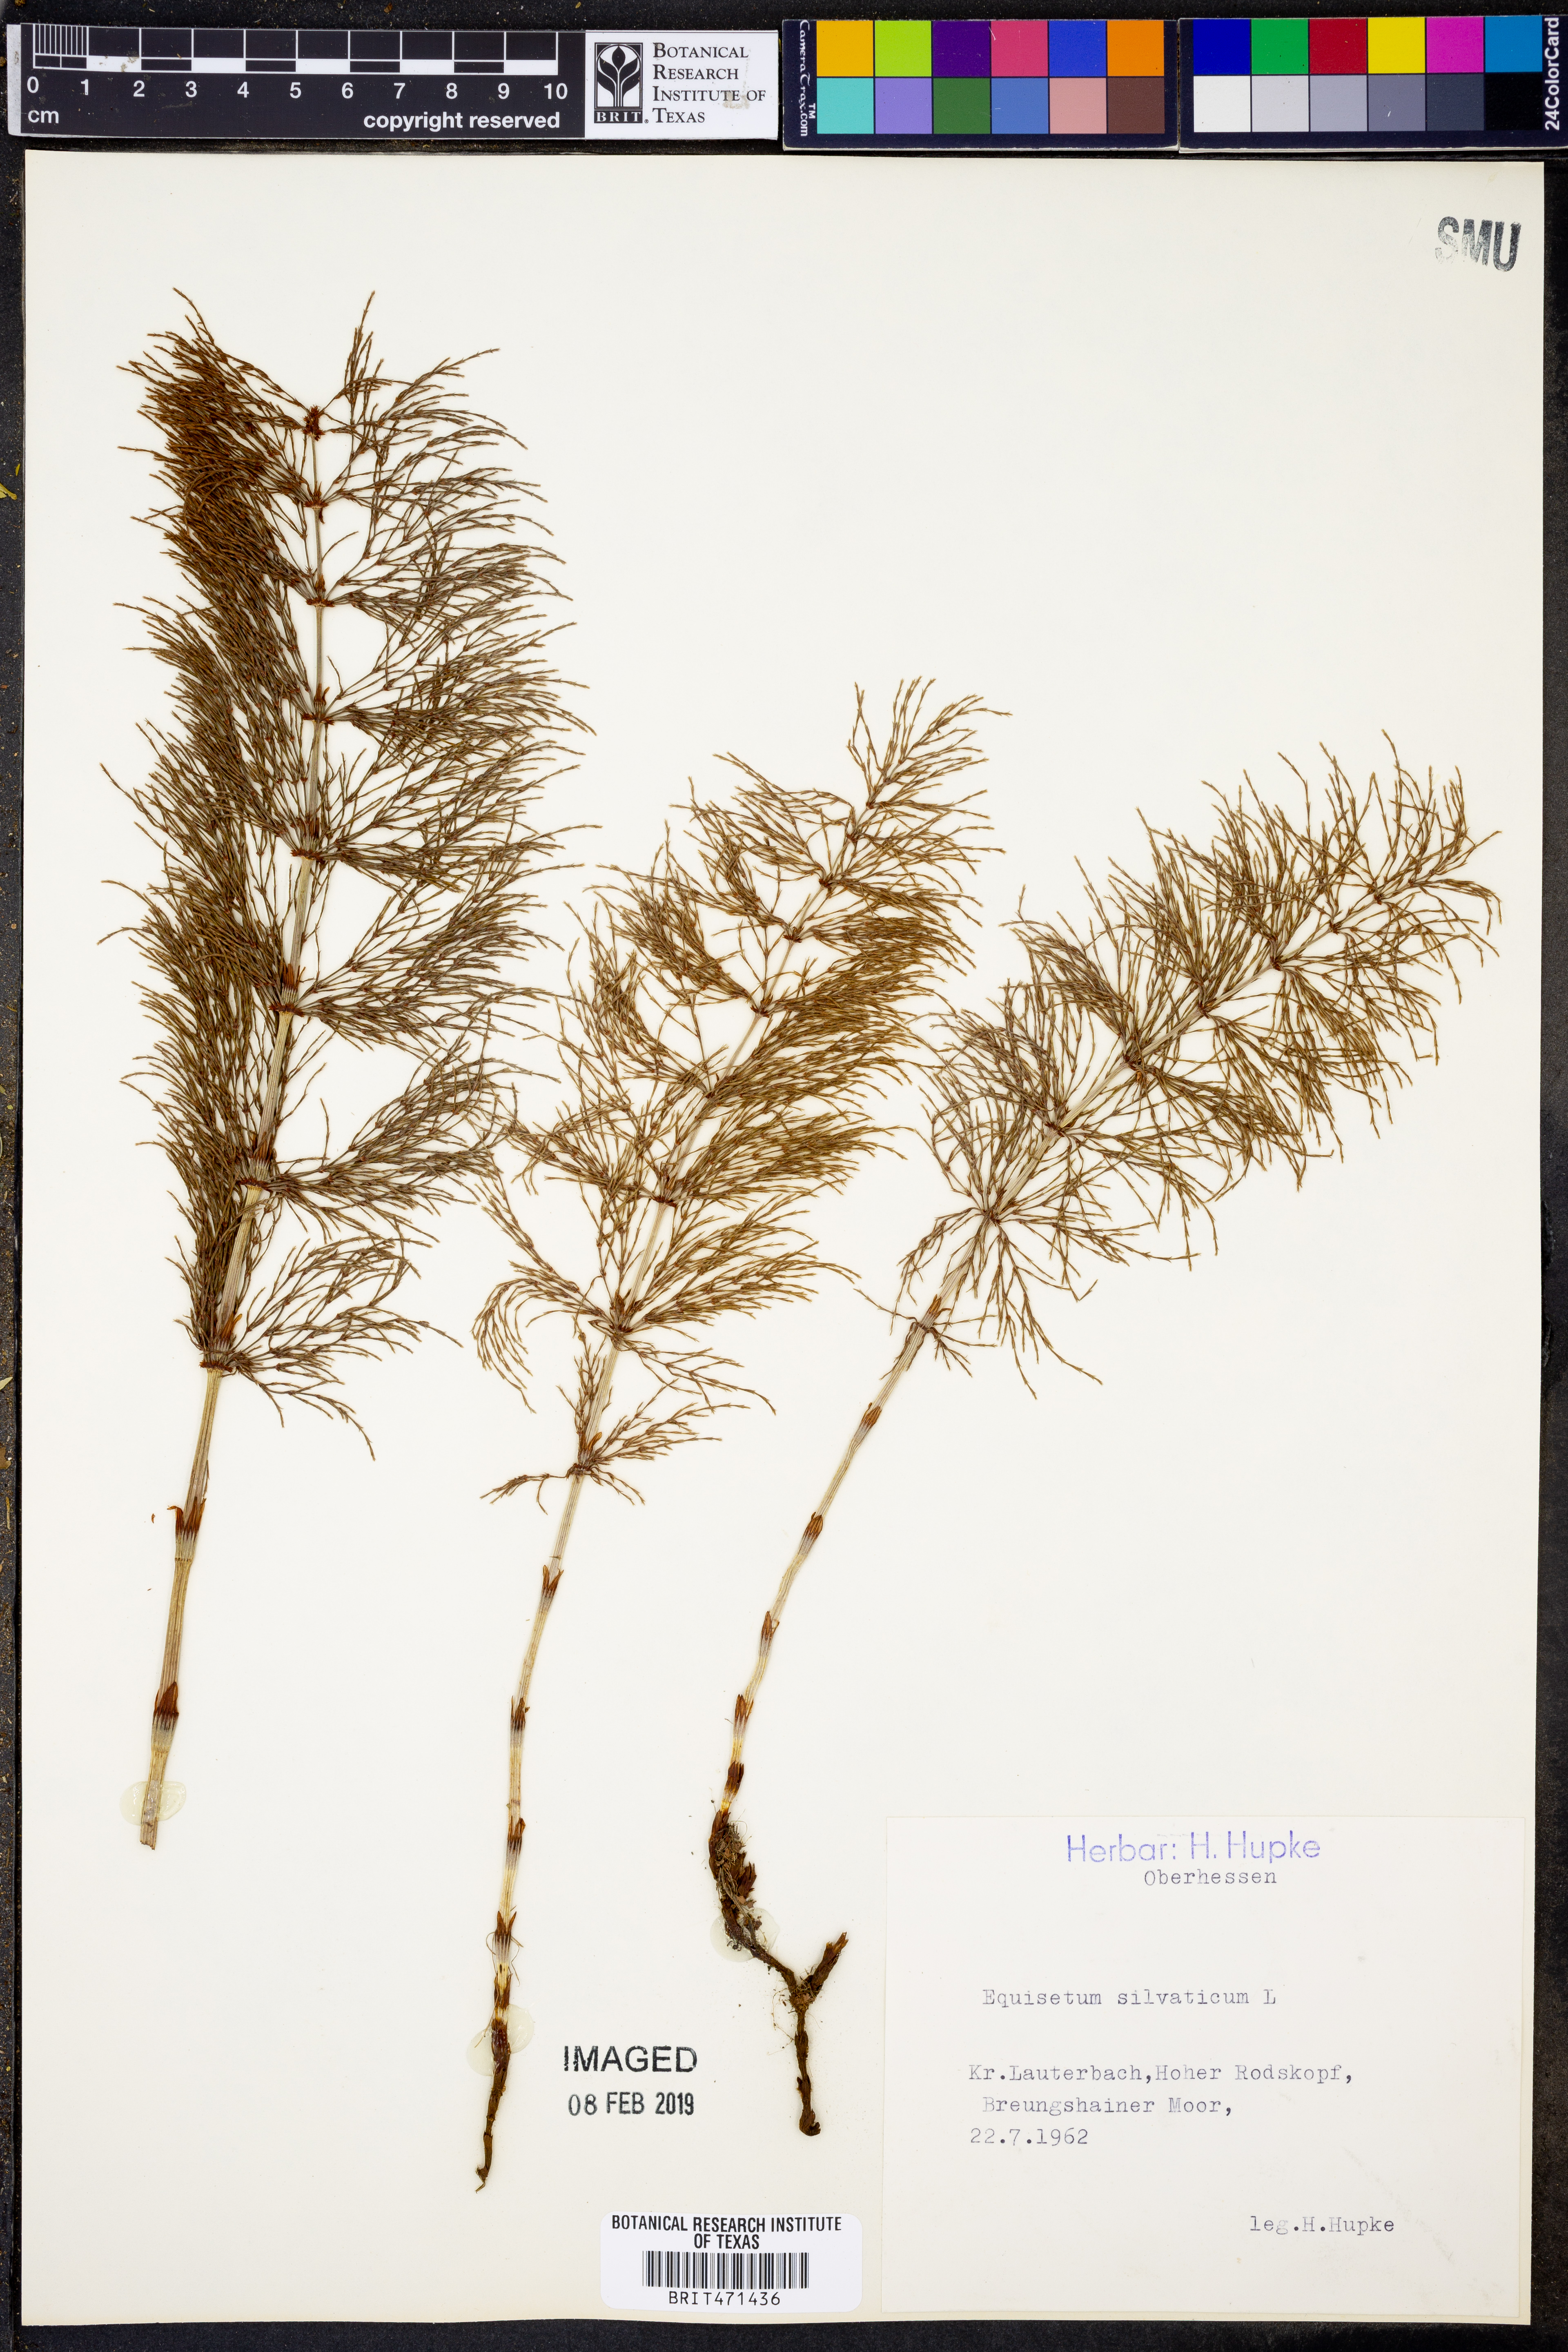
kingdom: Plantae
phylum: Tracheophyta
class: Polypodiopsida
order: Equisetales
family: Equisetaceae
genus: Equisetum
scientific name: Equisetum sylvaticum
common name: Wood horsetail
